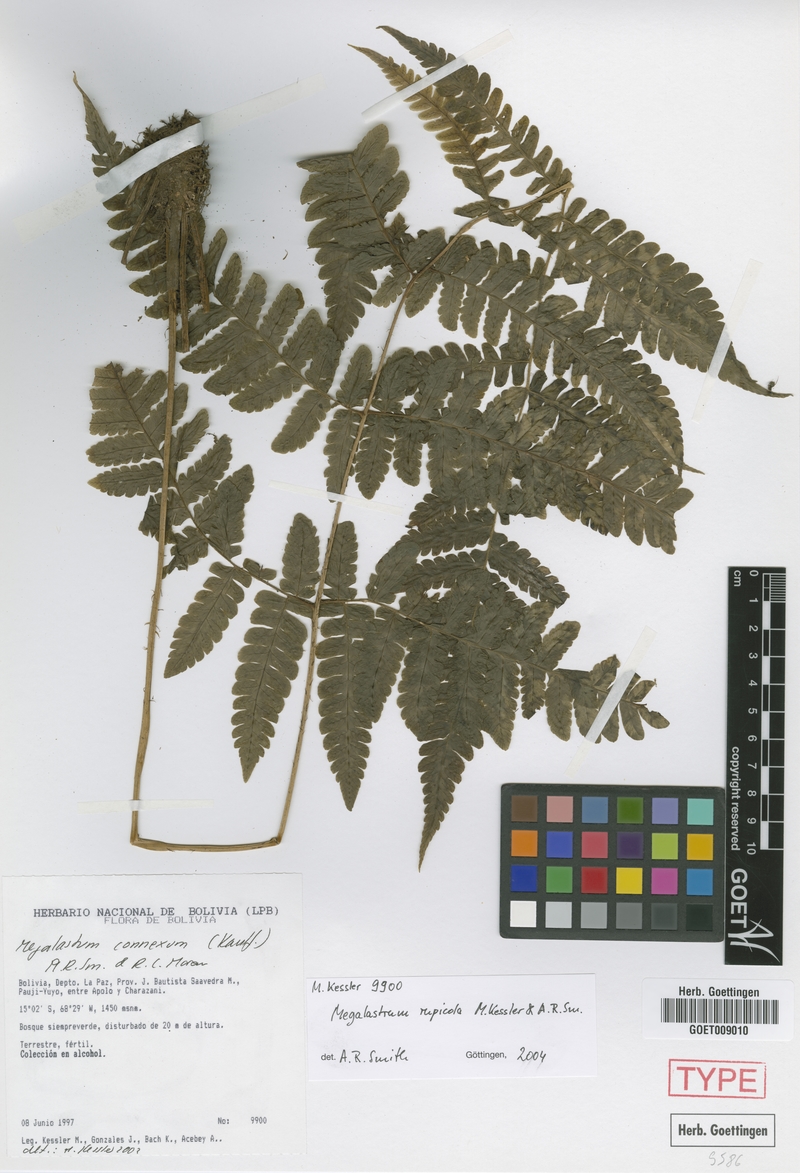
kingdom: Plantae
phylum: Tracheophyta
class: Polypodiopsida
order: Polypodiales
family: Dryopteridaceae
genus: Megalastrum
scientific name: Megalastrum rupicola
